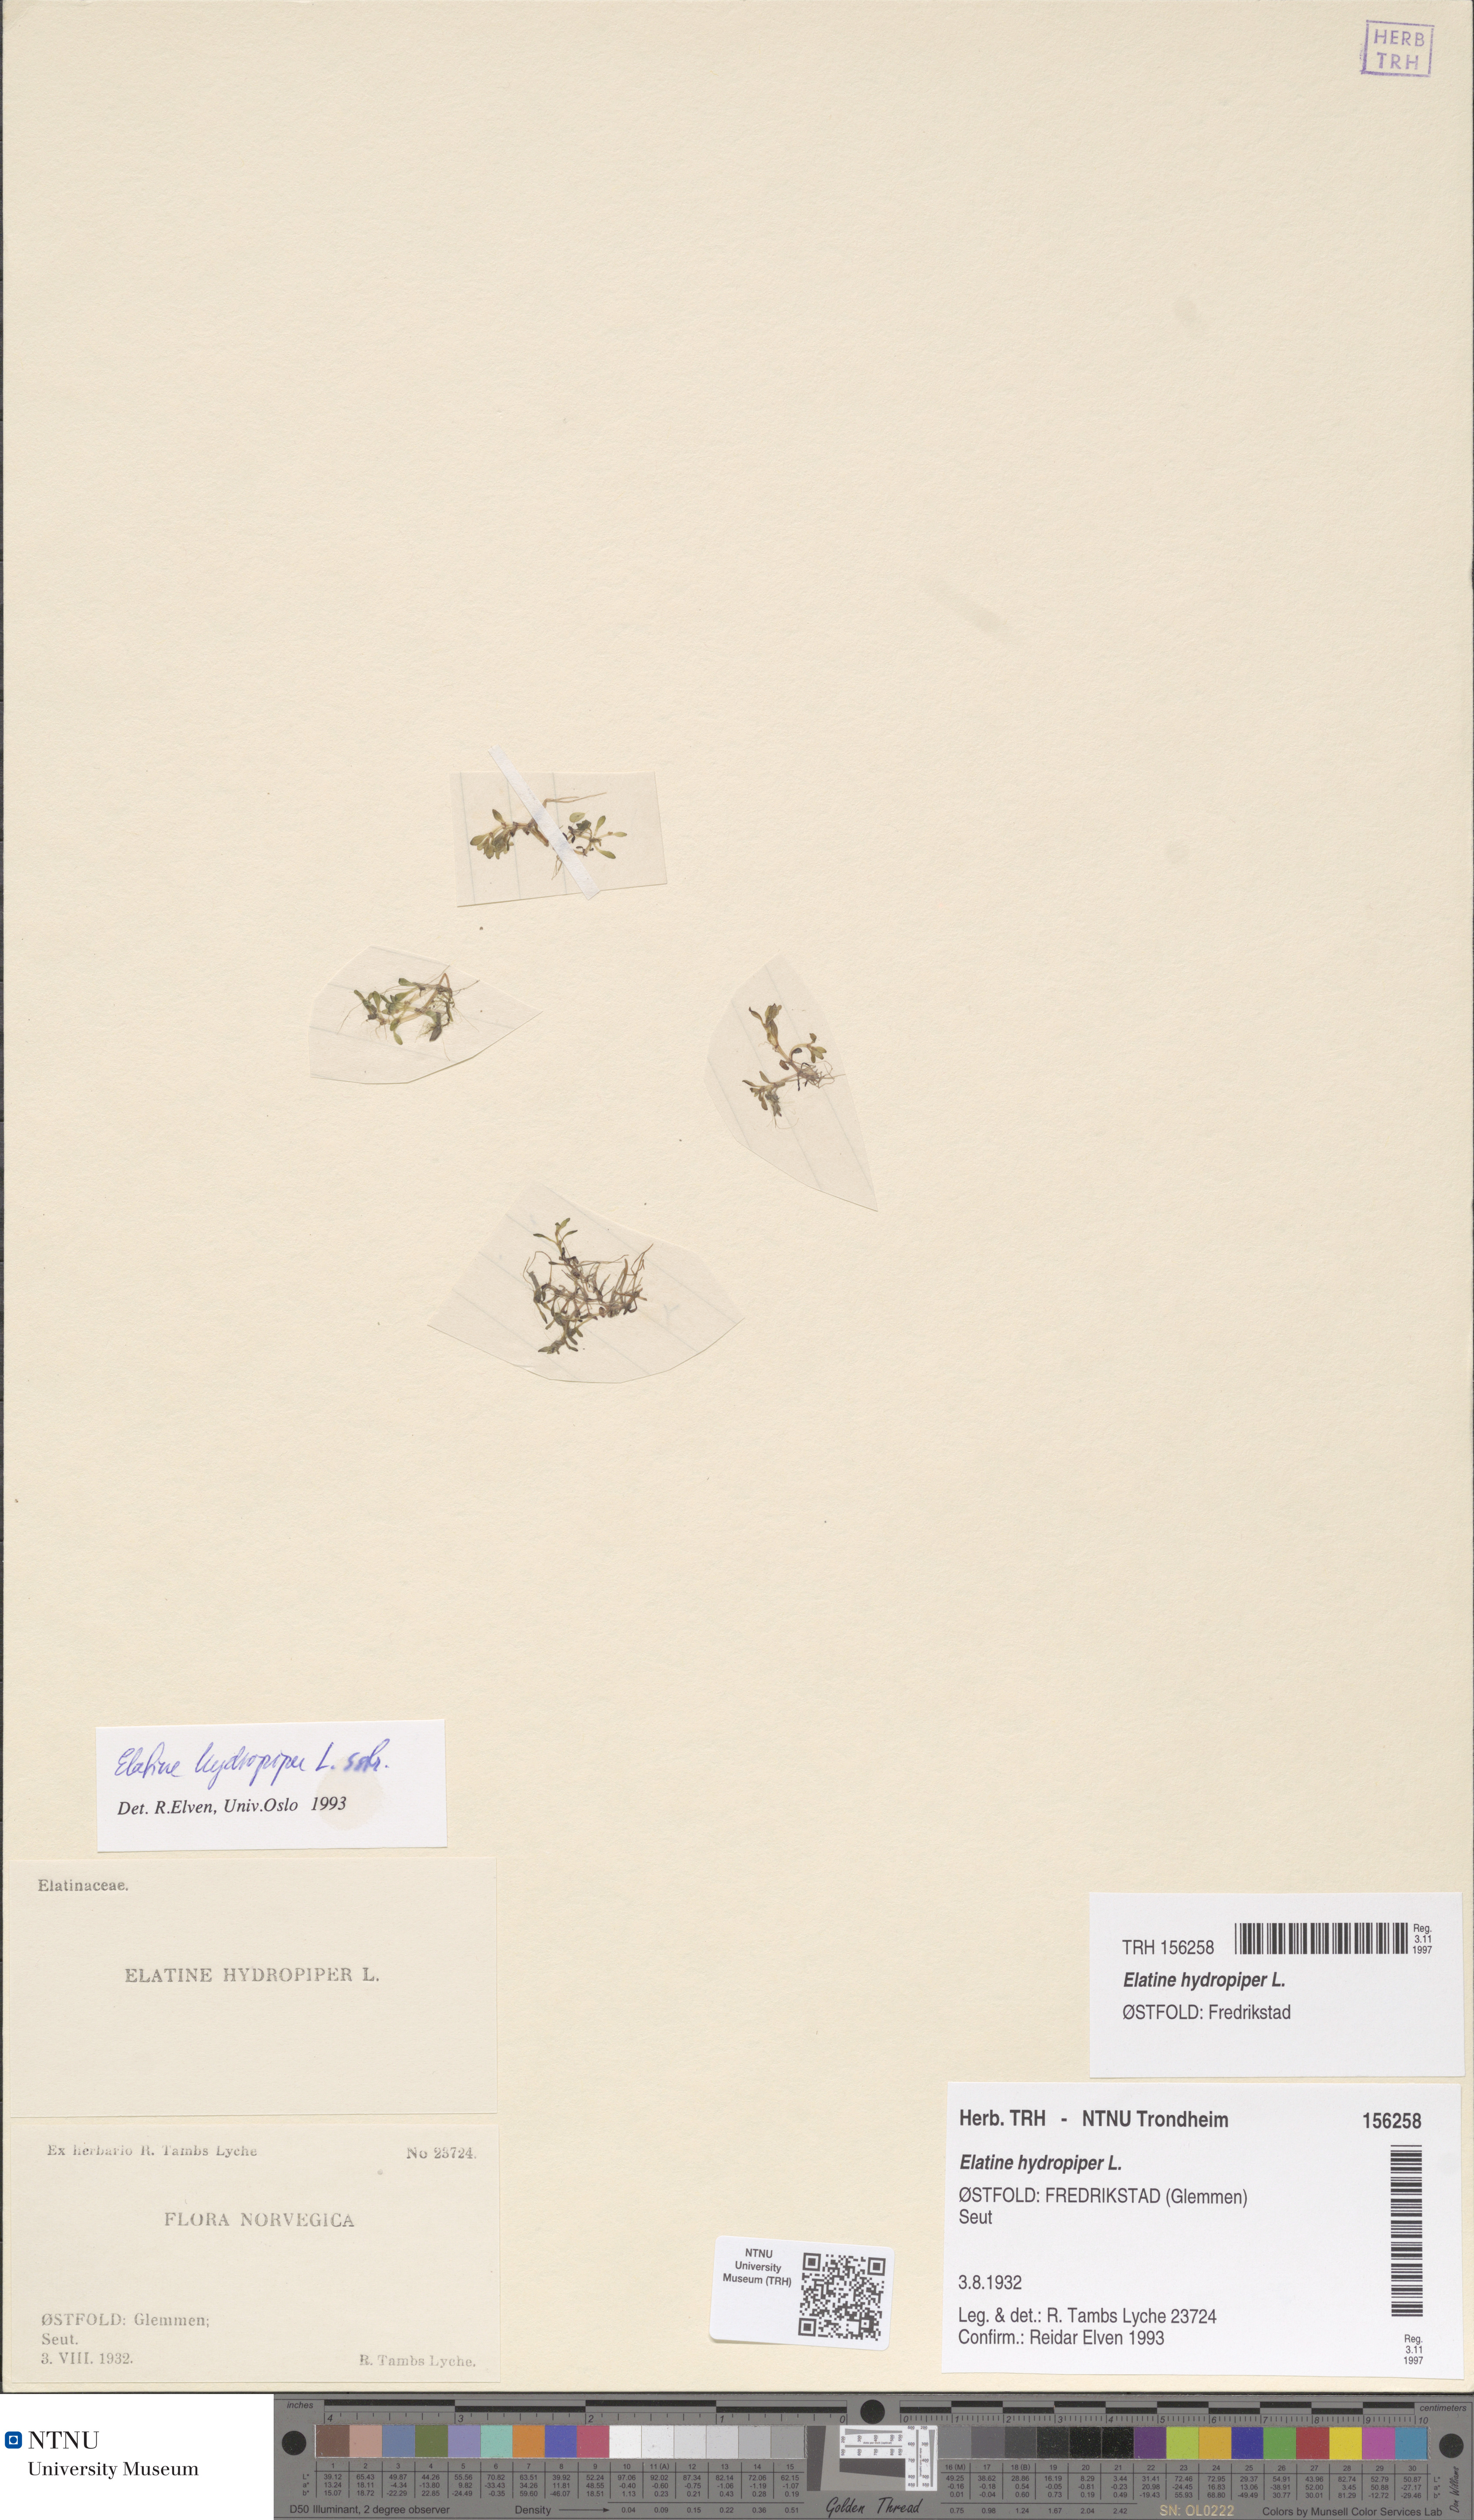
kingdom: Plantae
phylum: Tracheophyta
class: Magnoliopsida
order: Malpighiales
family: Elatinaceae
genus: Elatine
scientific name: Elatine hydropiper
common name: Eight-stamened waterwort
